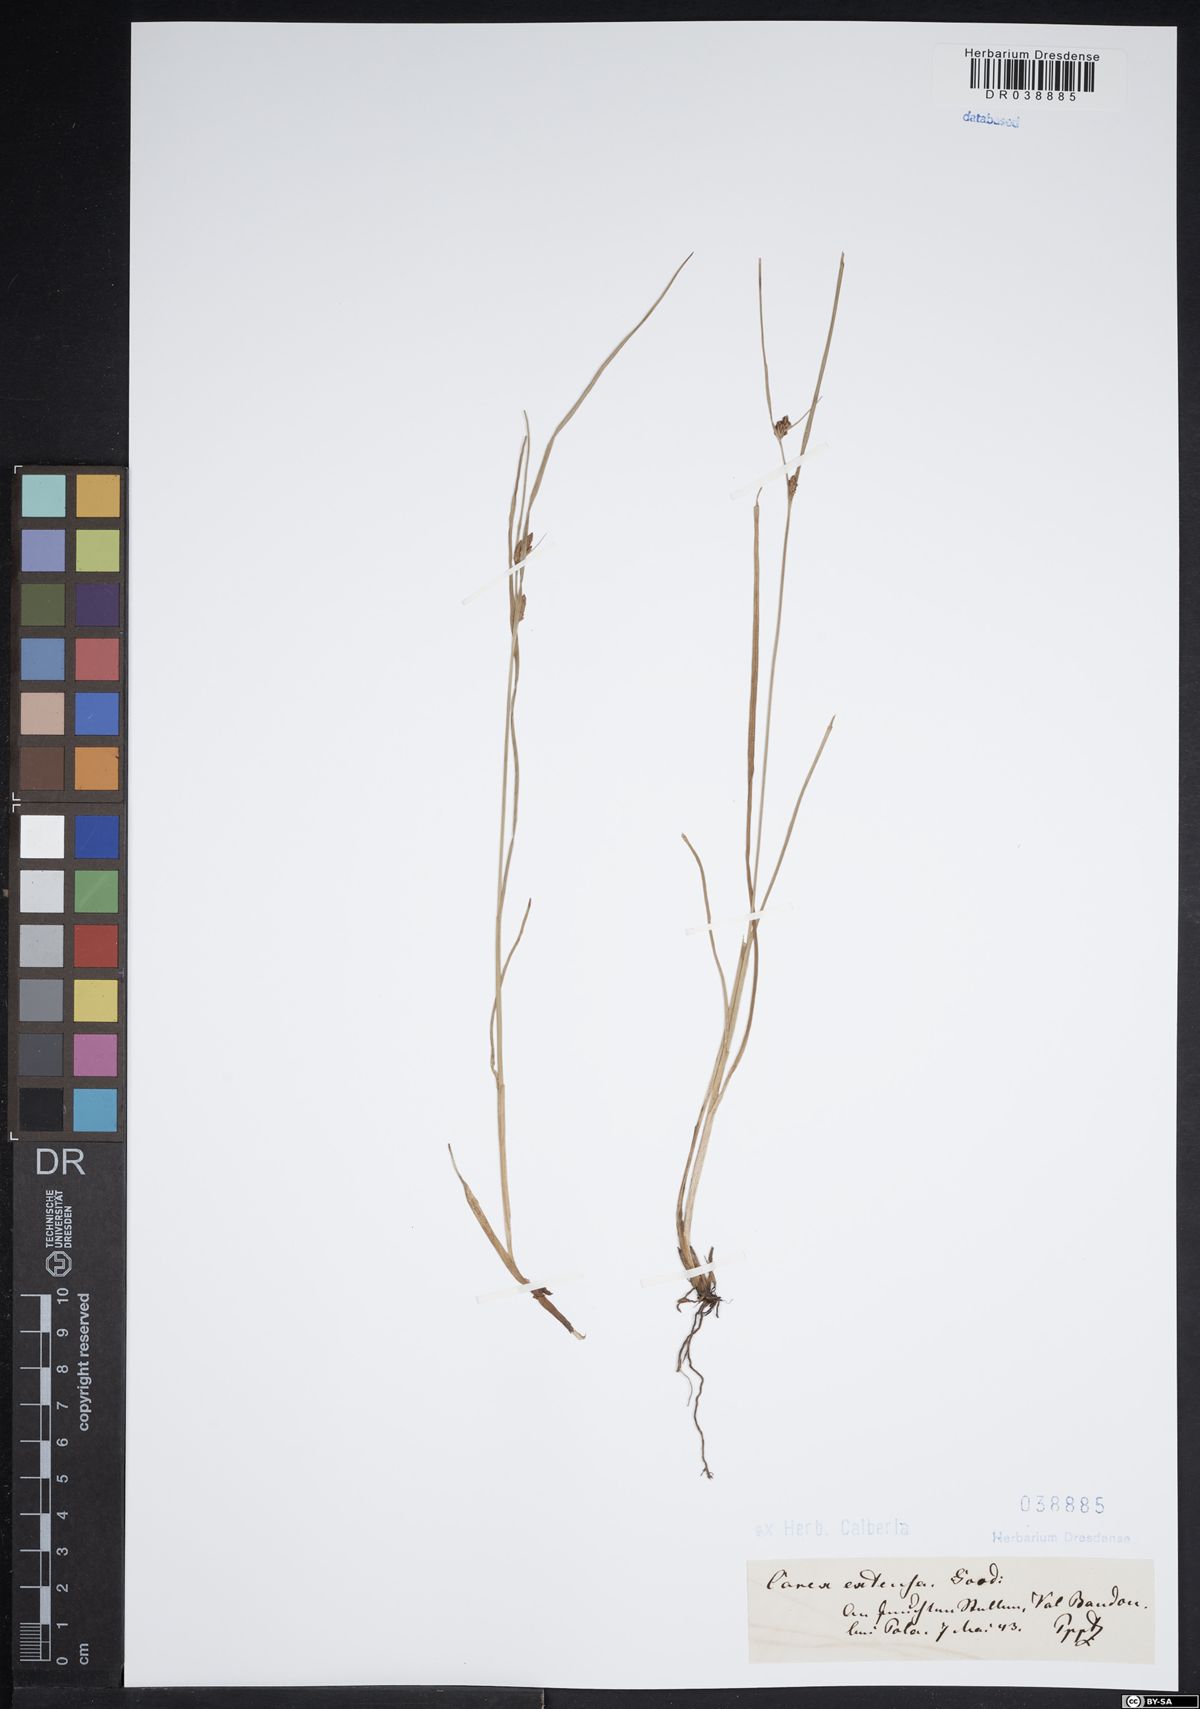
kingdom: Plantae
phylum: Tracheophyta
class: Liliopsida
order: Poales
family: Cyperaceae
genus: Carex
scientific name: Carex extensa
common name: Long-bracted sedge
